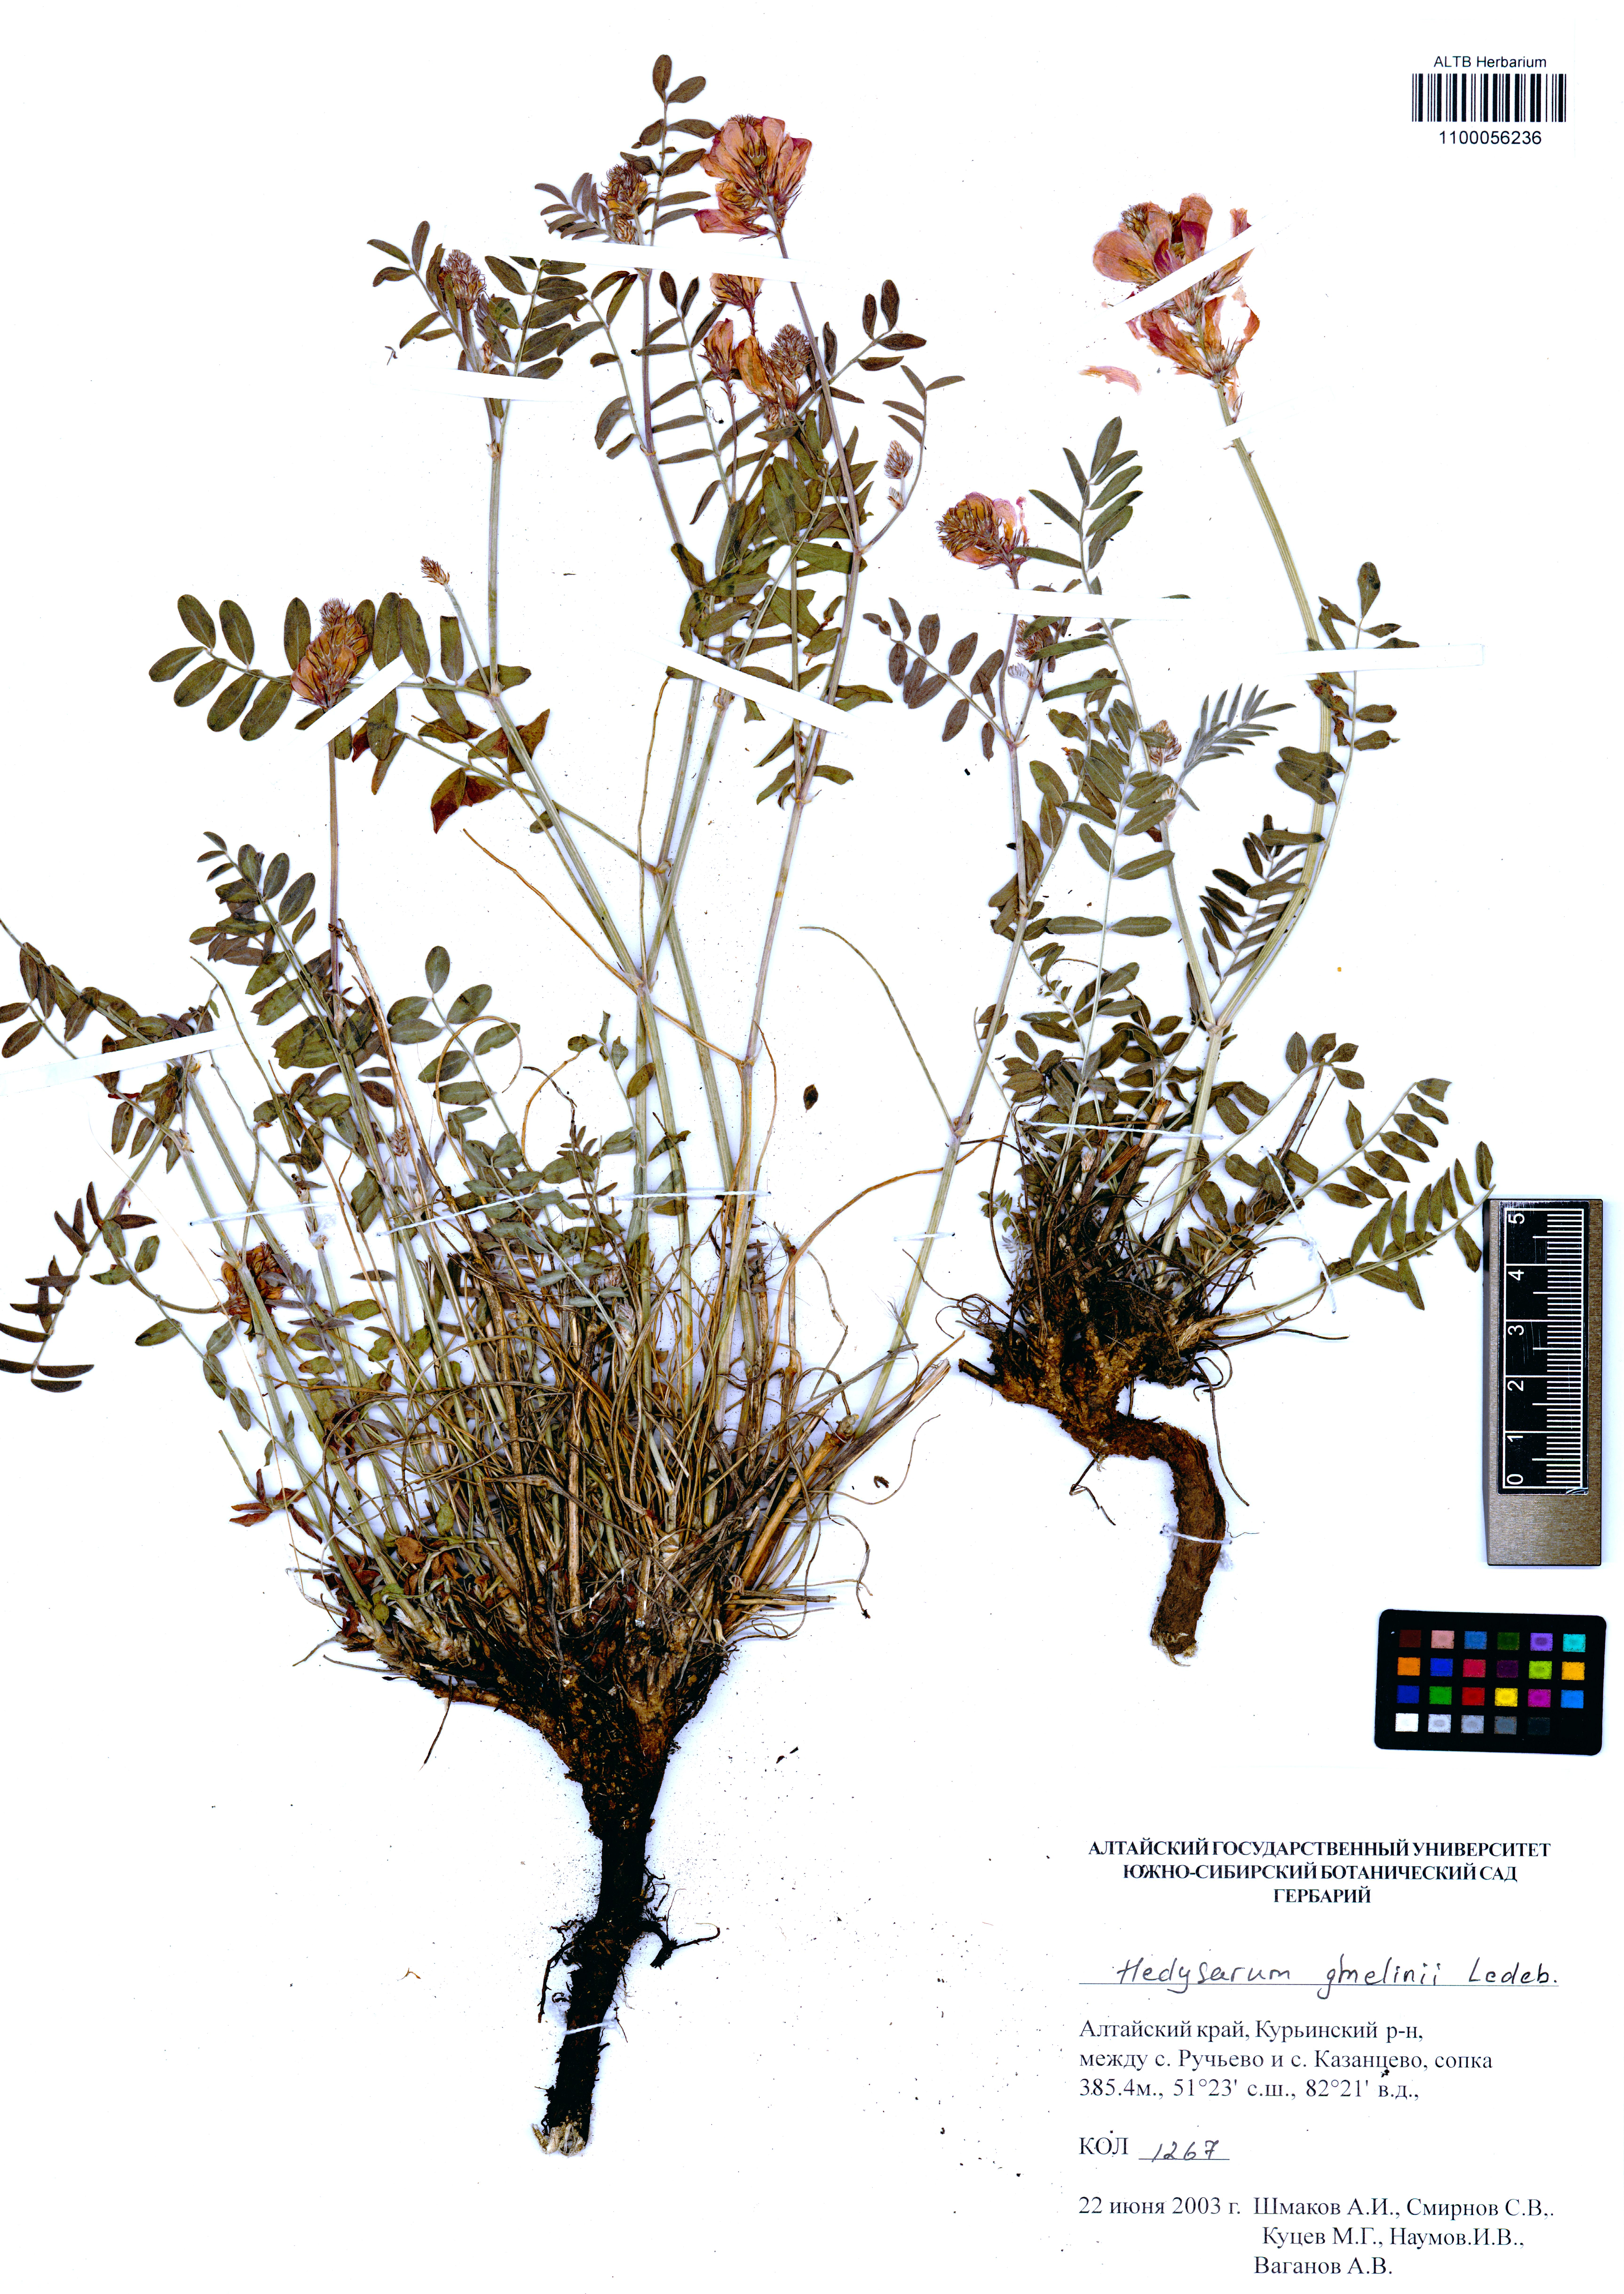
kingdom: Plantae
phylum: Tracheophyta
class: Magnoliopsida
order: Fabales
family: Fabaceae
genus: Hedysarum
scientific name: Hedysarum gmelinii
